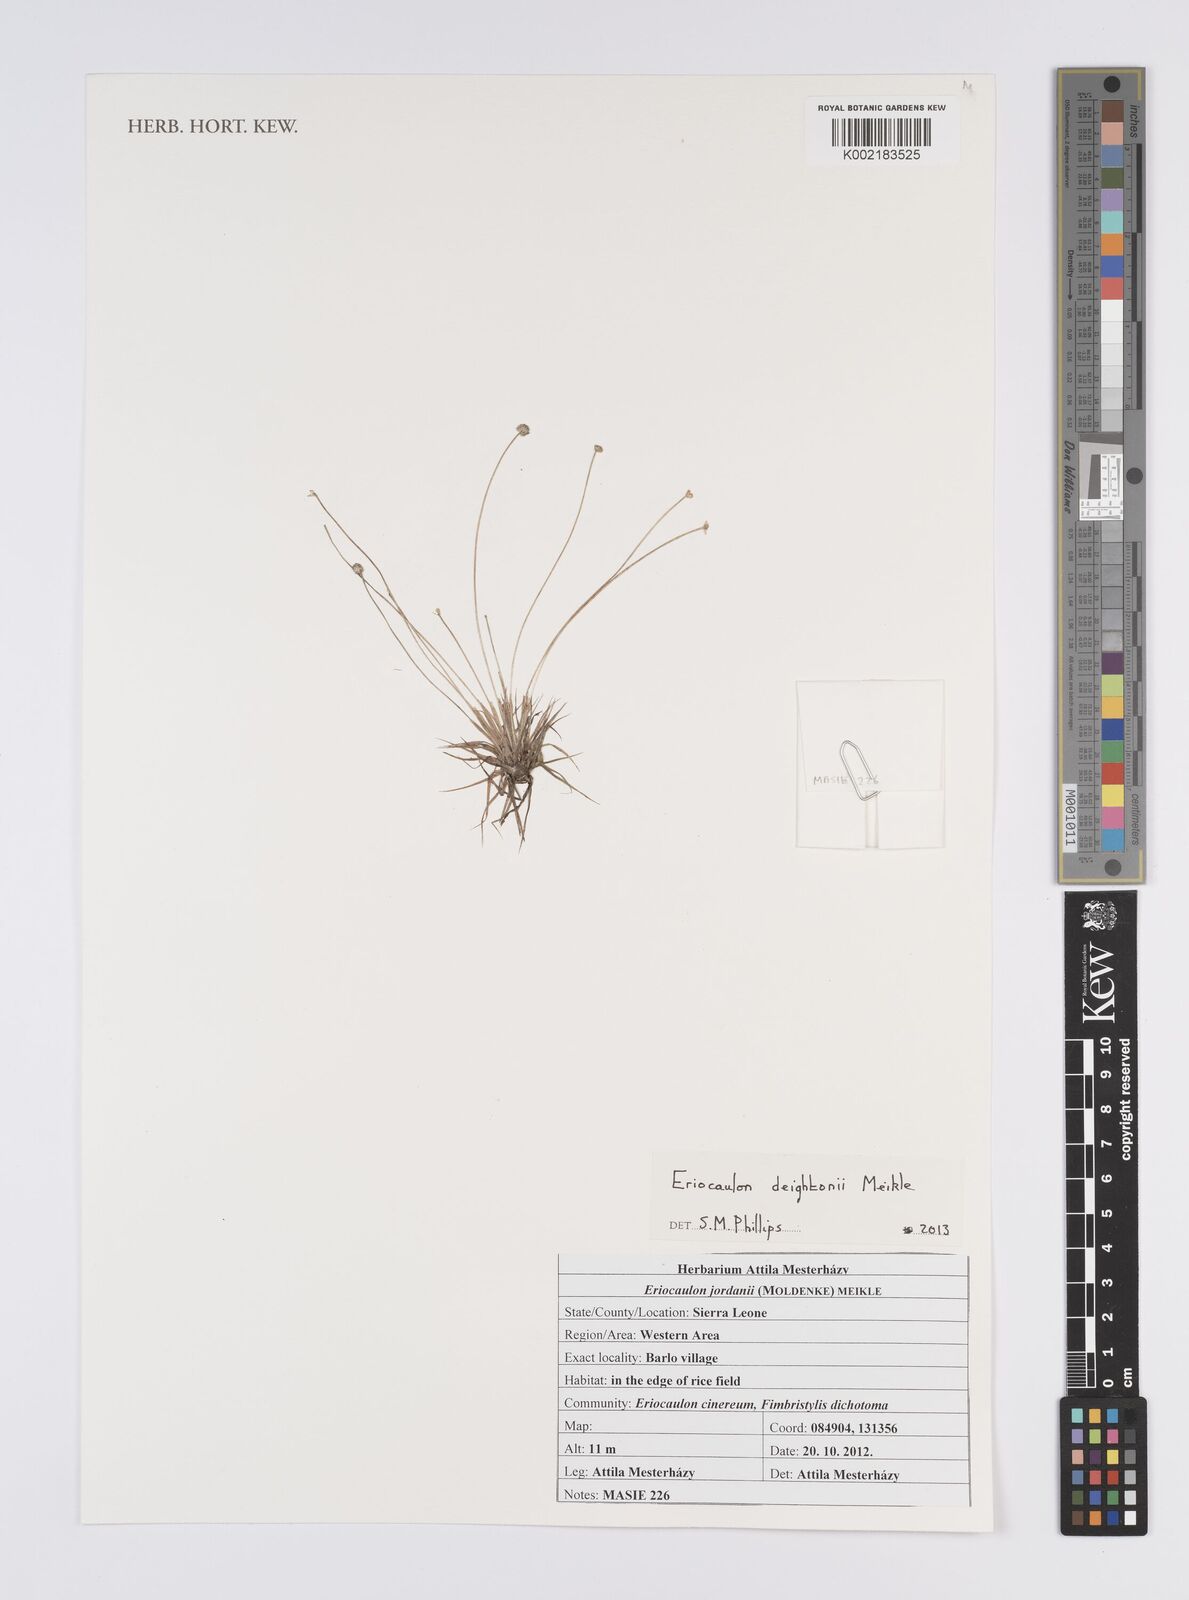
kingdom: Plantae
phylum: Tracheophyta
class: Liliopsida
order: Poales
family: Eriocaulaceae
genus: Eriocaulon
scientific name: Eriocaulon deightonii
